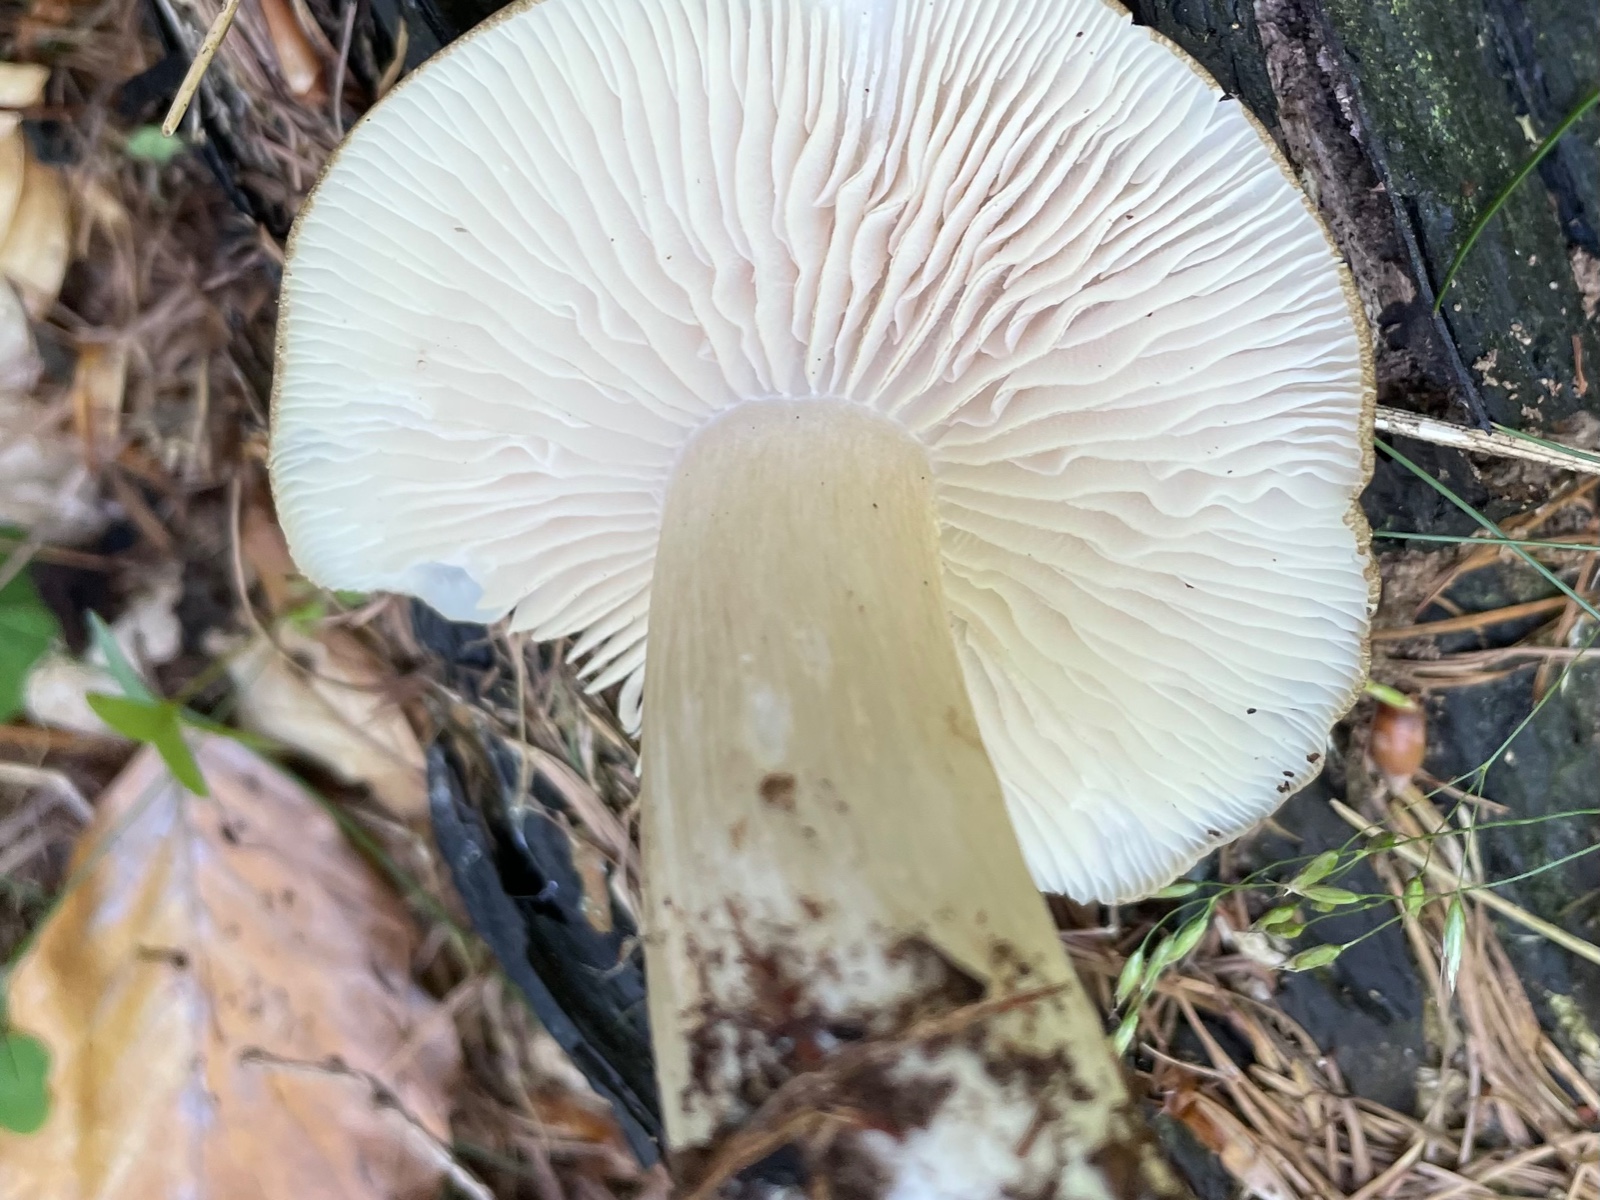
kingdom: Fungi
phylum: Basidiomycota
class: Agaricomycetes
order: Agaricales
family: Tricholomataceae
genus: Megacollybia
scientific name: Megacollybia platyphylla
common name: bredbladet væbnerhat
